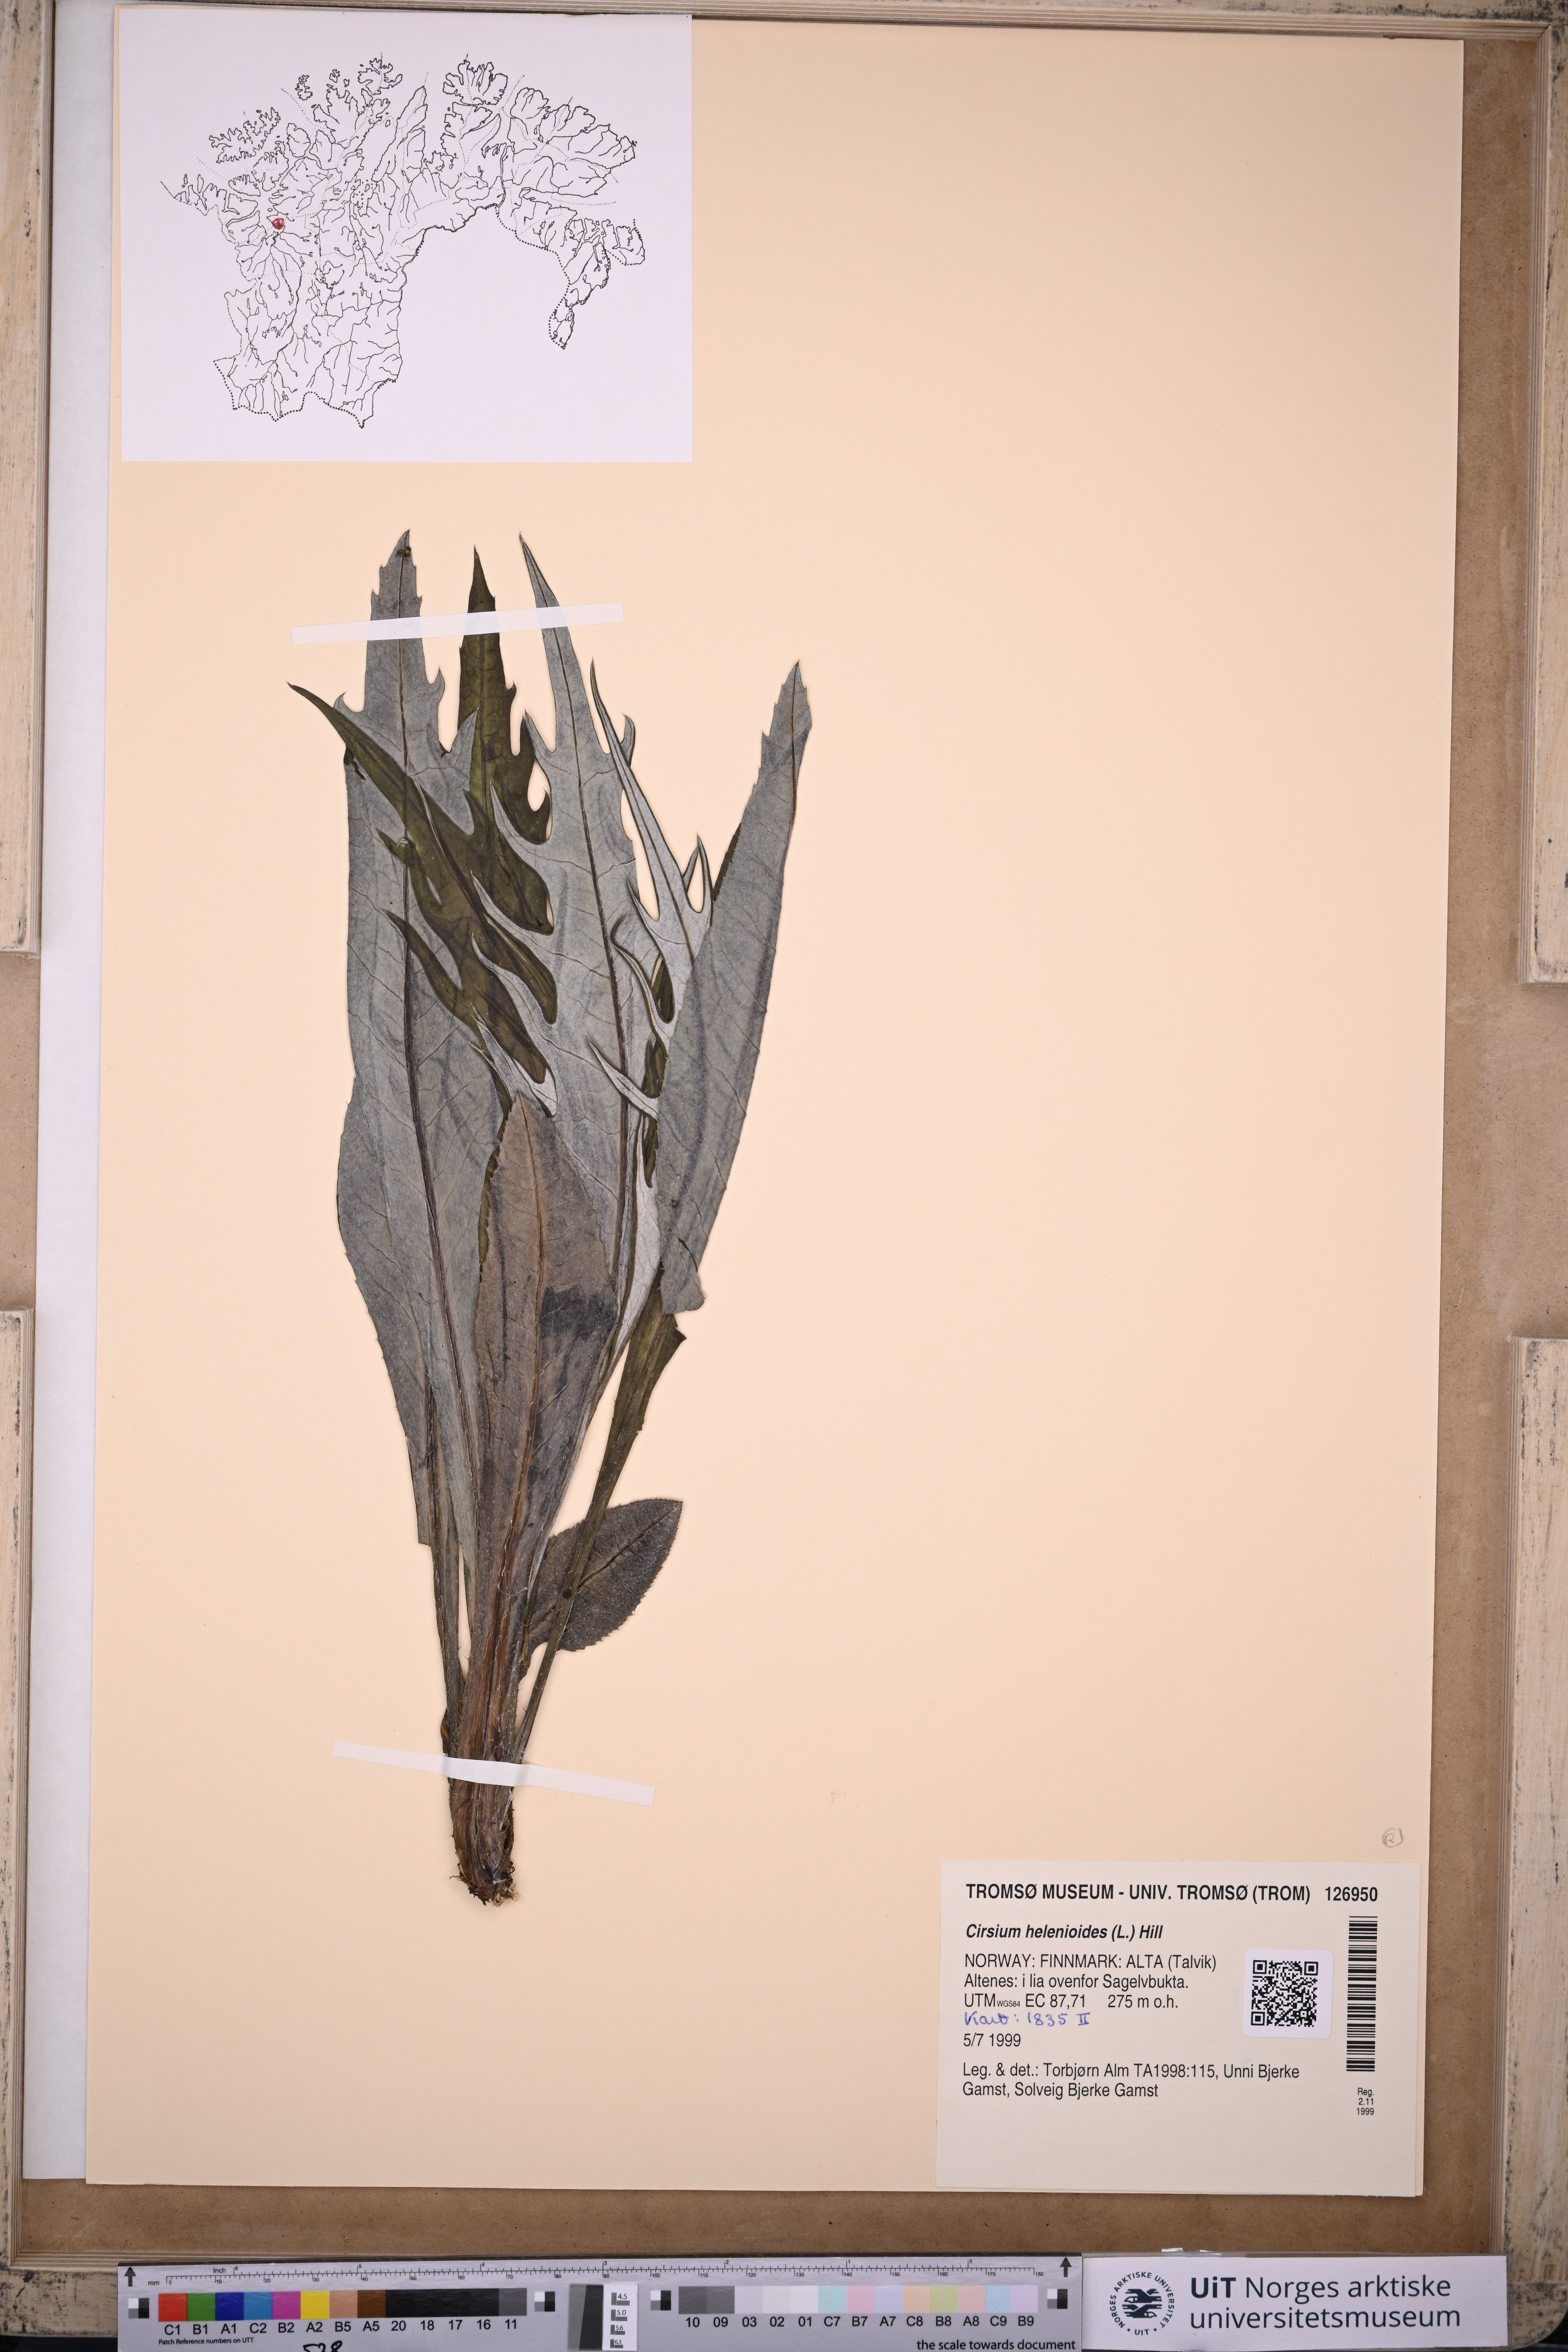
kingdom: Plantae
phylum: Tracheophyta
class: Magnoliopsida
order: Asterales
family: Asteraceae
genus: Cirsium
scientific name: Cirsium helenioides
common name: Melancholy thistle
